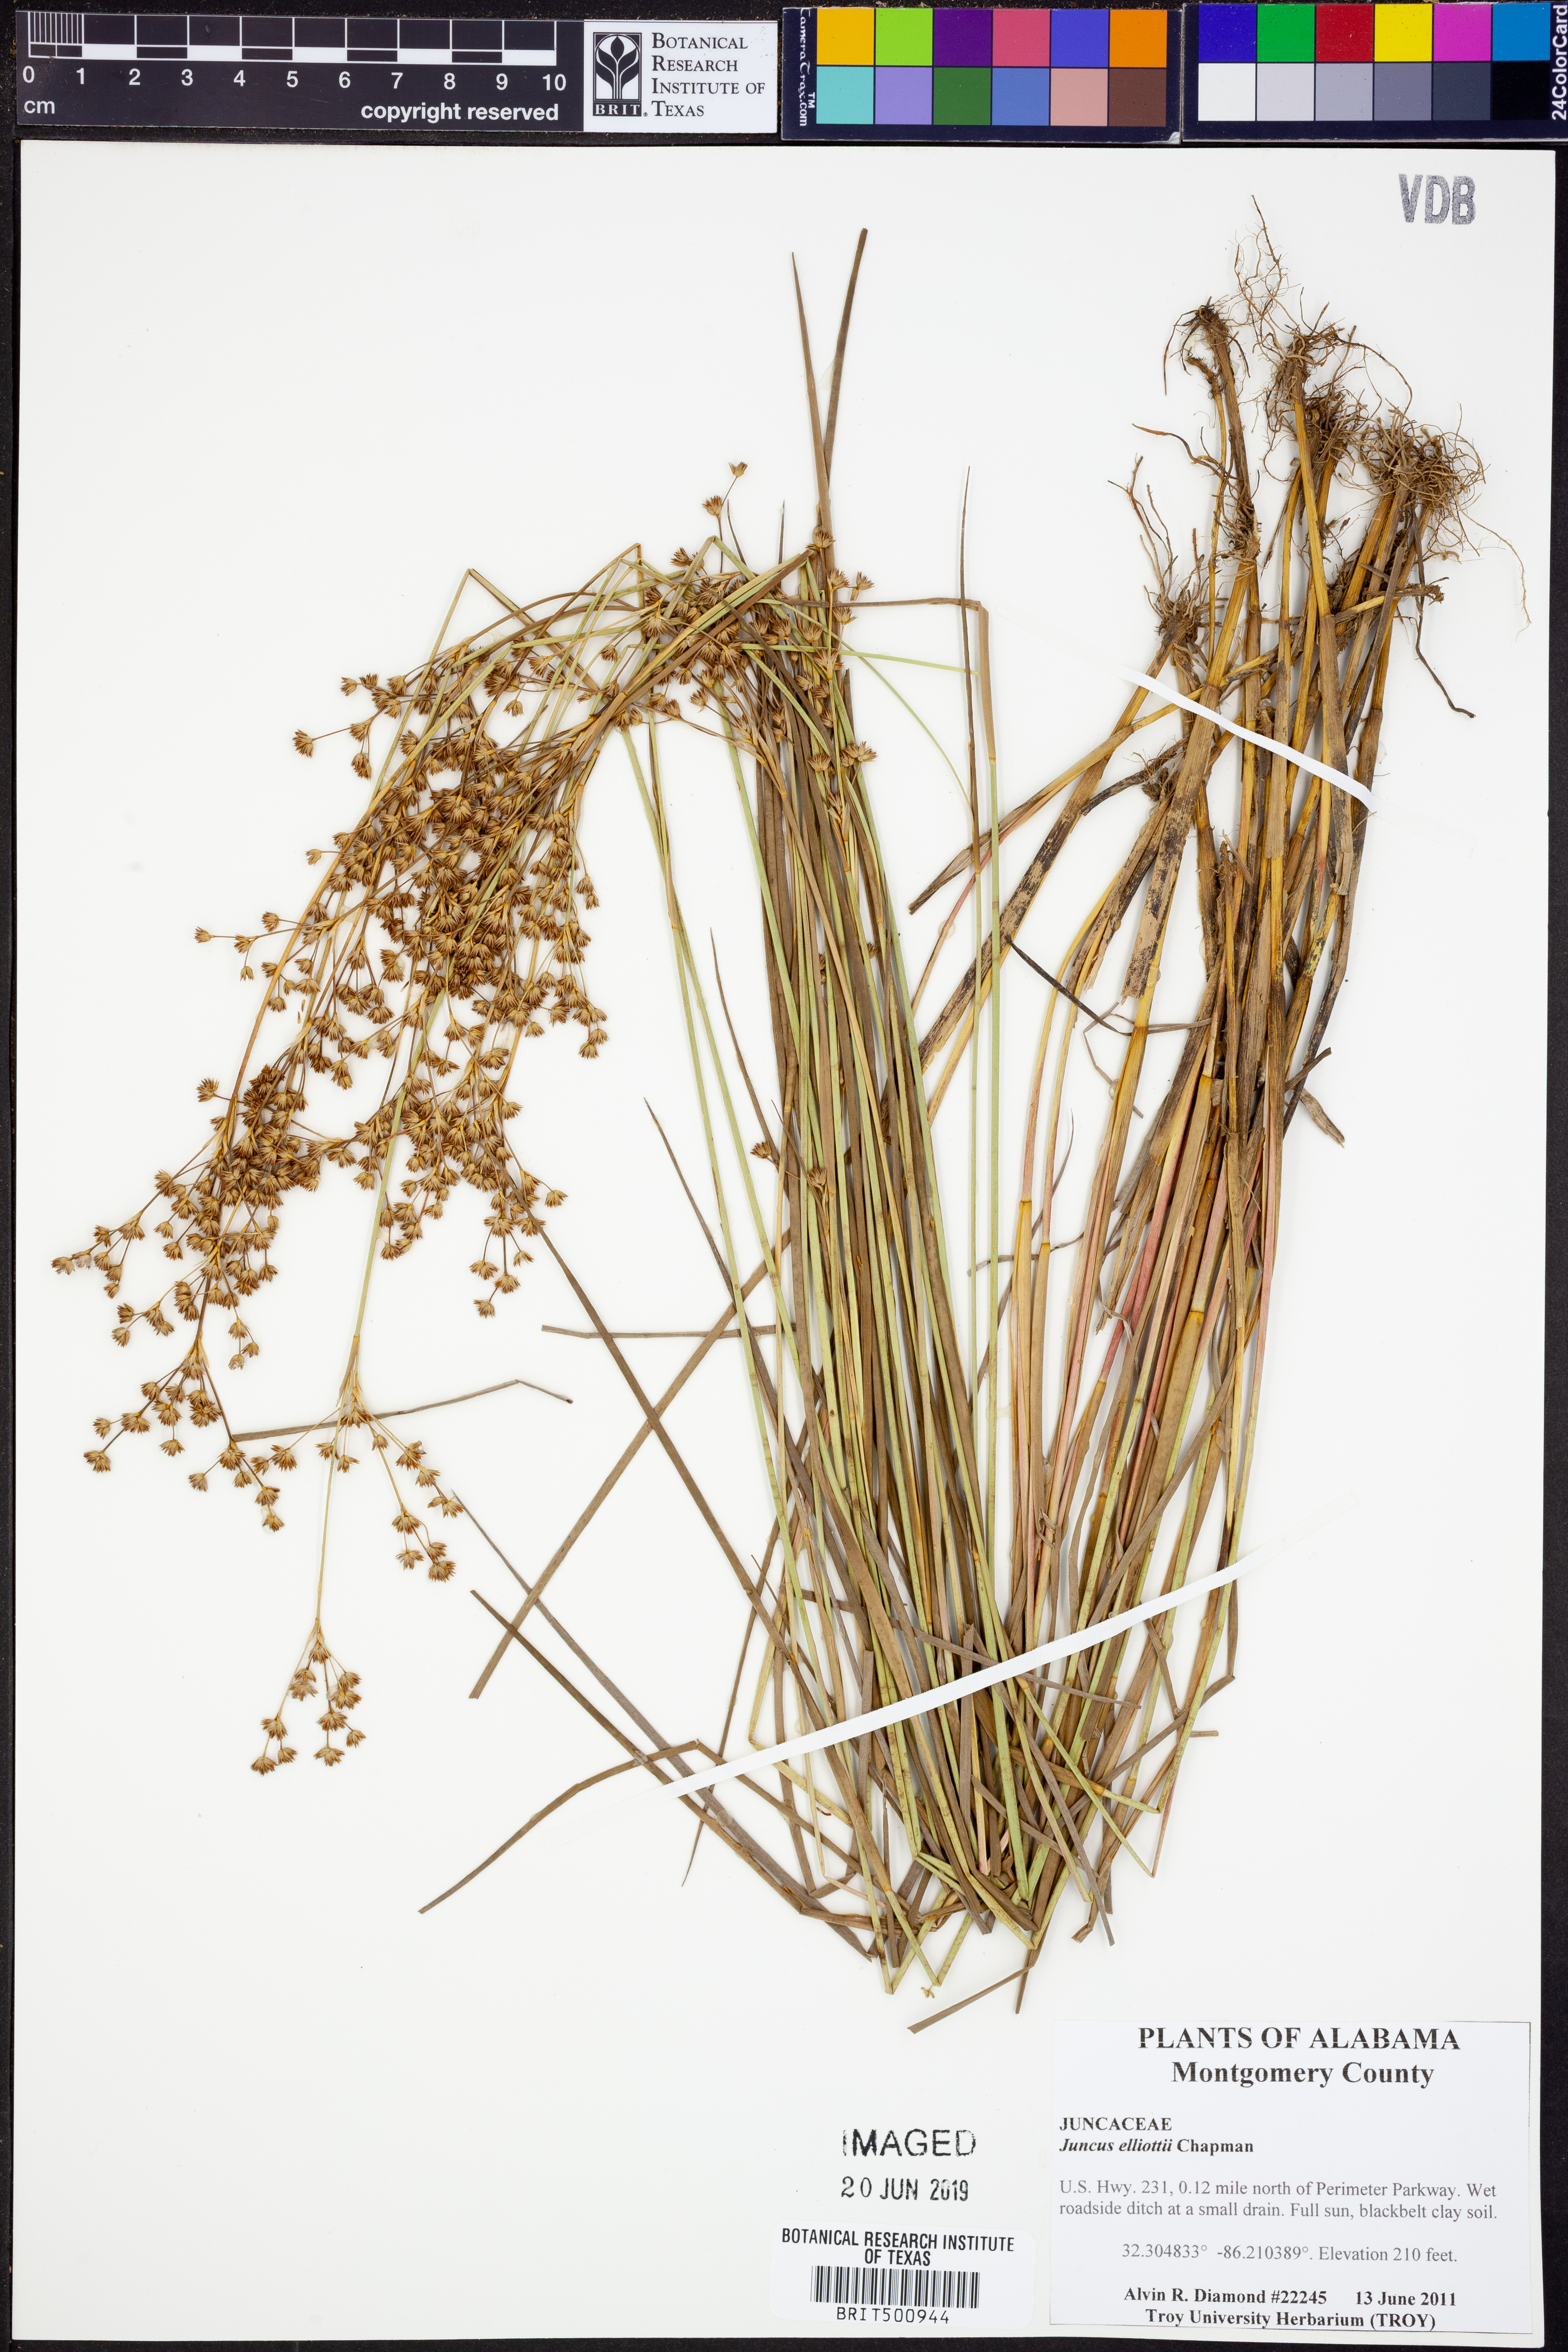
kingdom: Plantae
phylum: Tracheophyta
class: Liliopsida
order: Poales
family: Juncaceae
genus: Juncus
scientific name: Juncus elliottii
